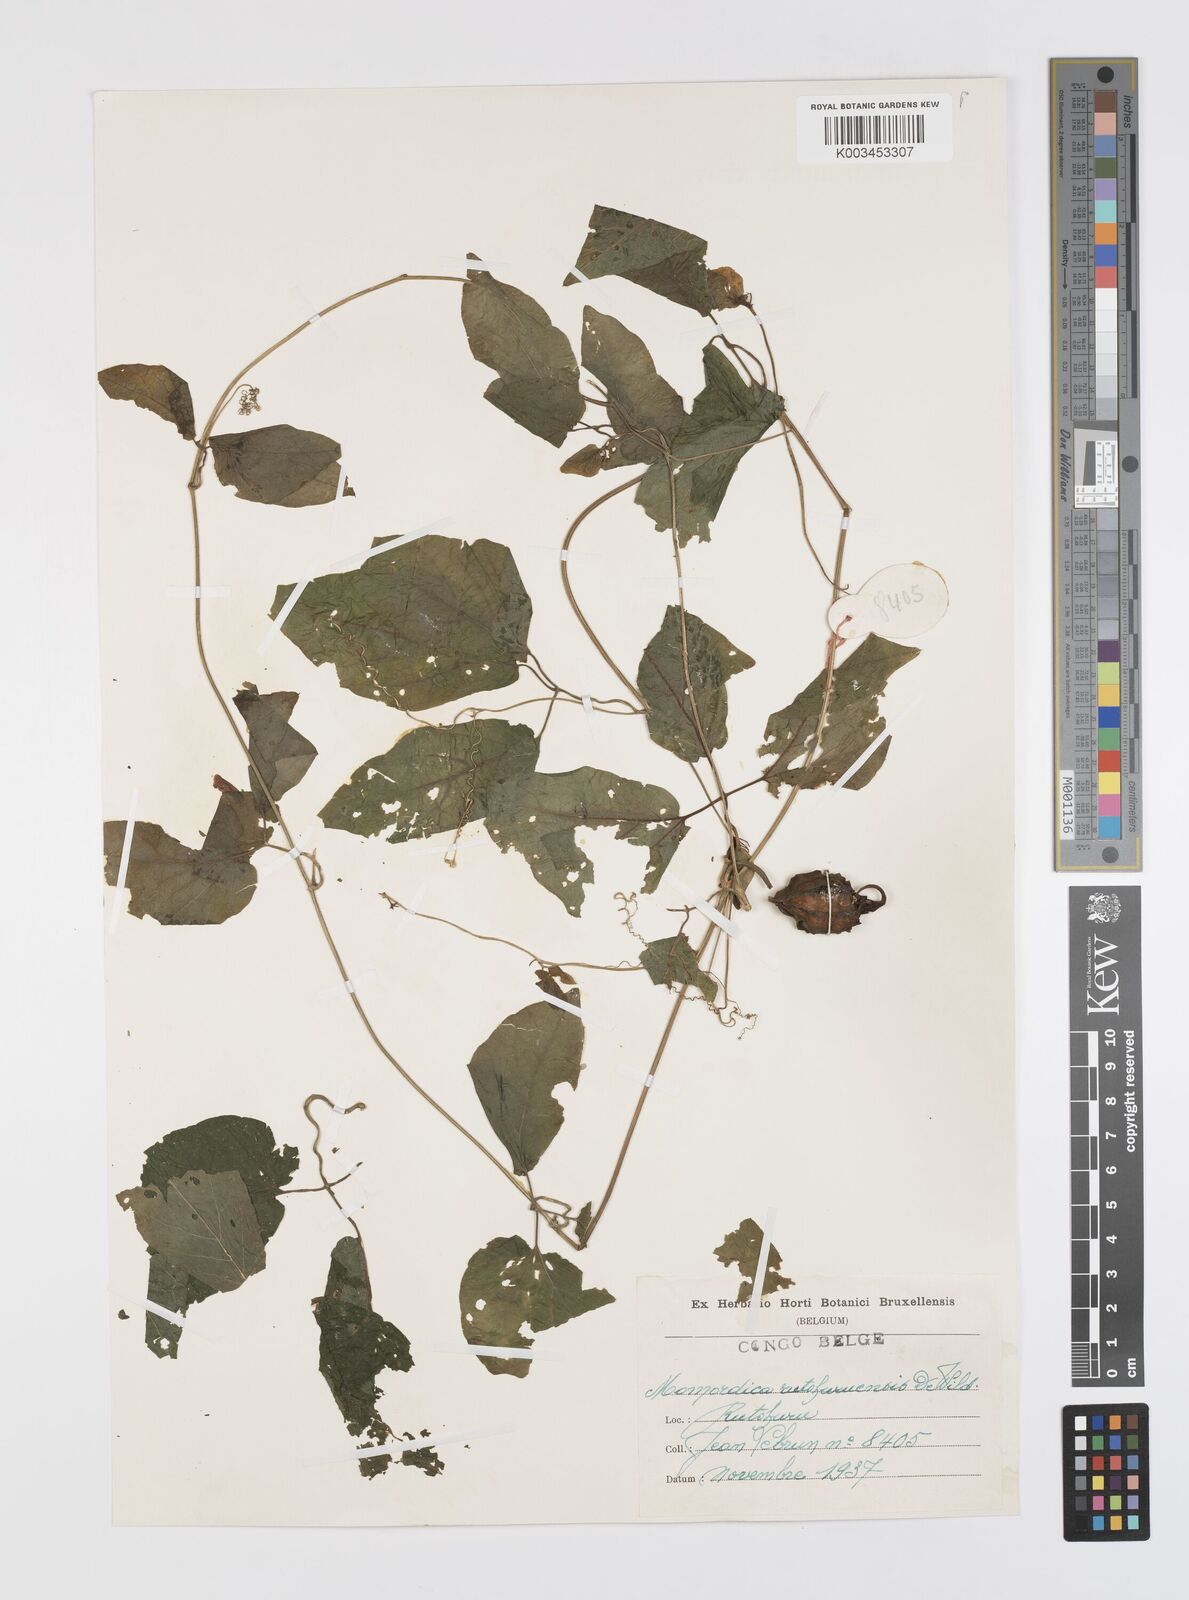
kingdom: Plantae
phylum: Tracheophyta
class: Magnoliopsida
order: Cucurbitales
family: Cucurbitaceae
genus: Momordica
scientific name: Momordica pterocarpa
